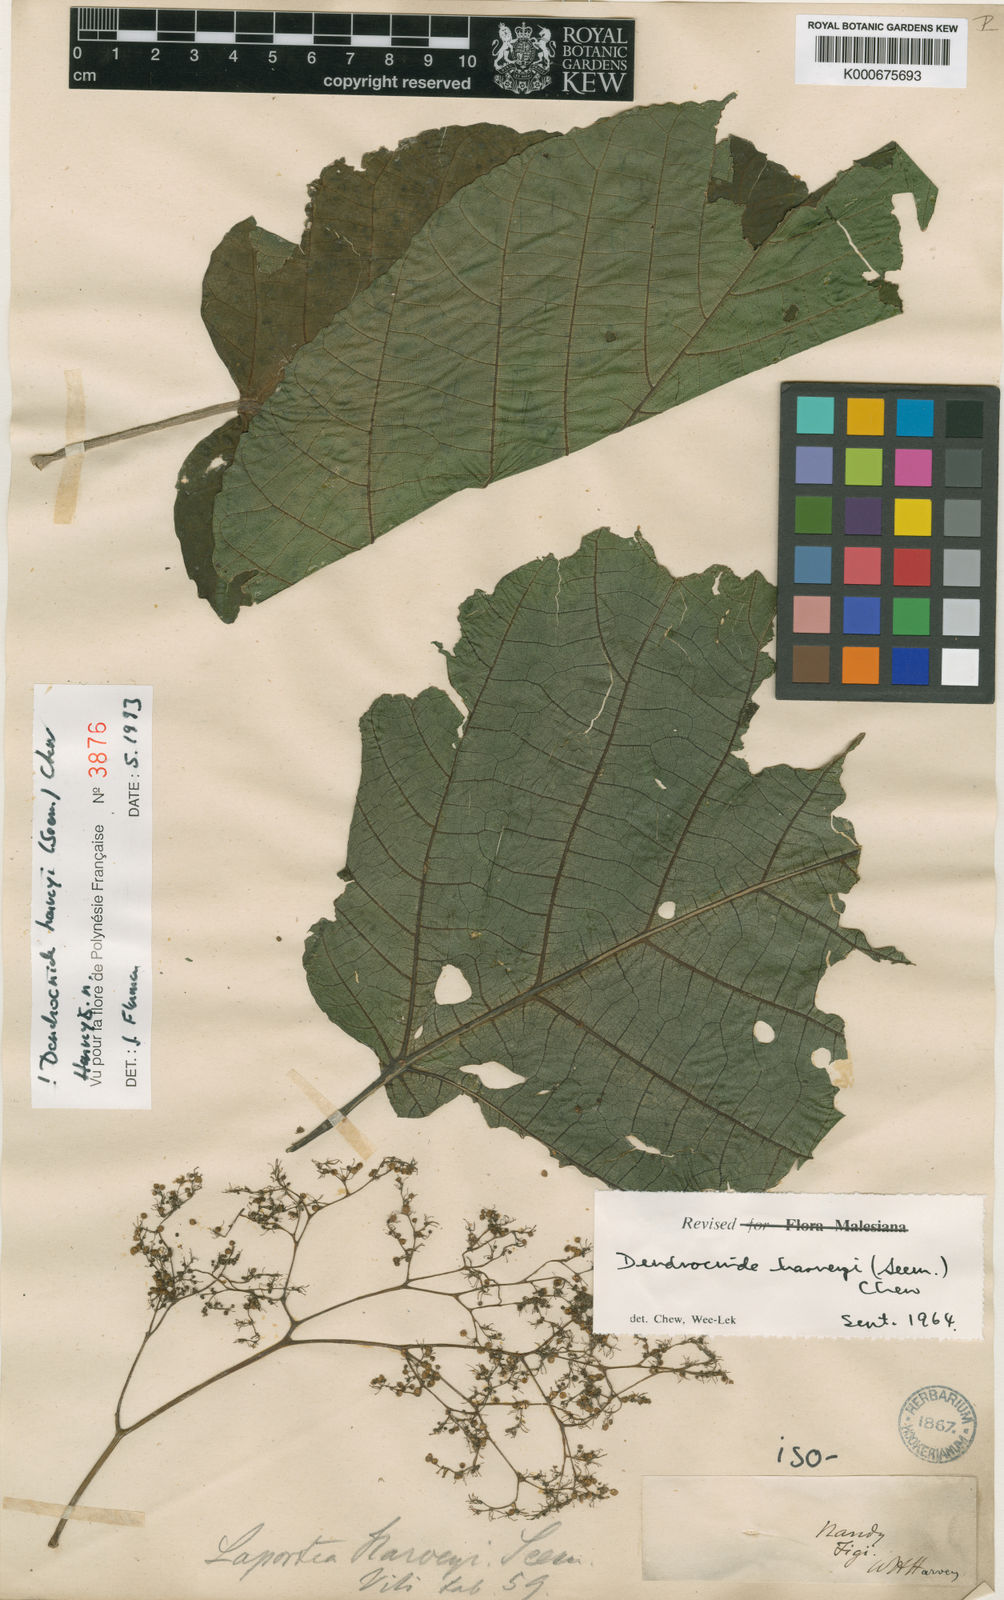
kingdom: Plantae
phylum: Tracheophyta
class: Magnoliopsida
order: Rosales
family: Urticaceae
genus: Dendrocnide
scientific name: Dendrocnide harveyi
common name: Stinging nettle tree
